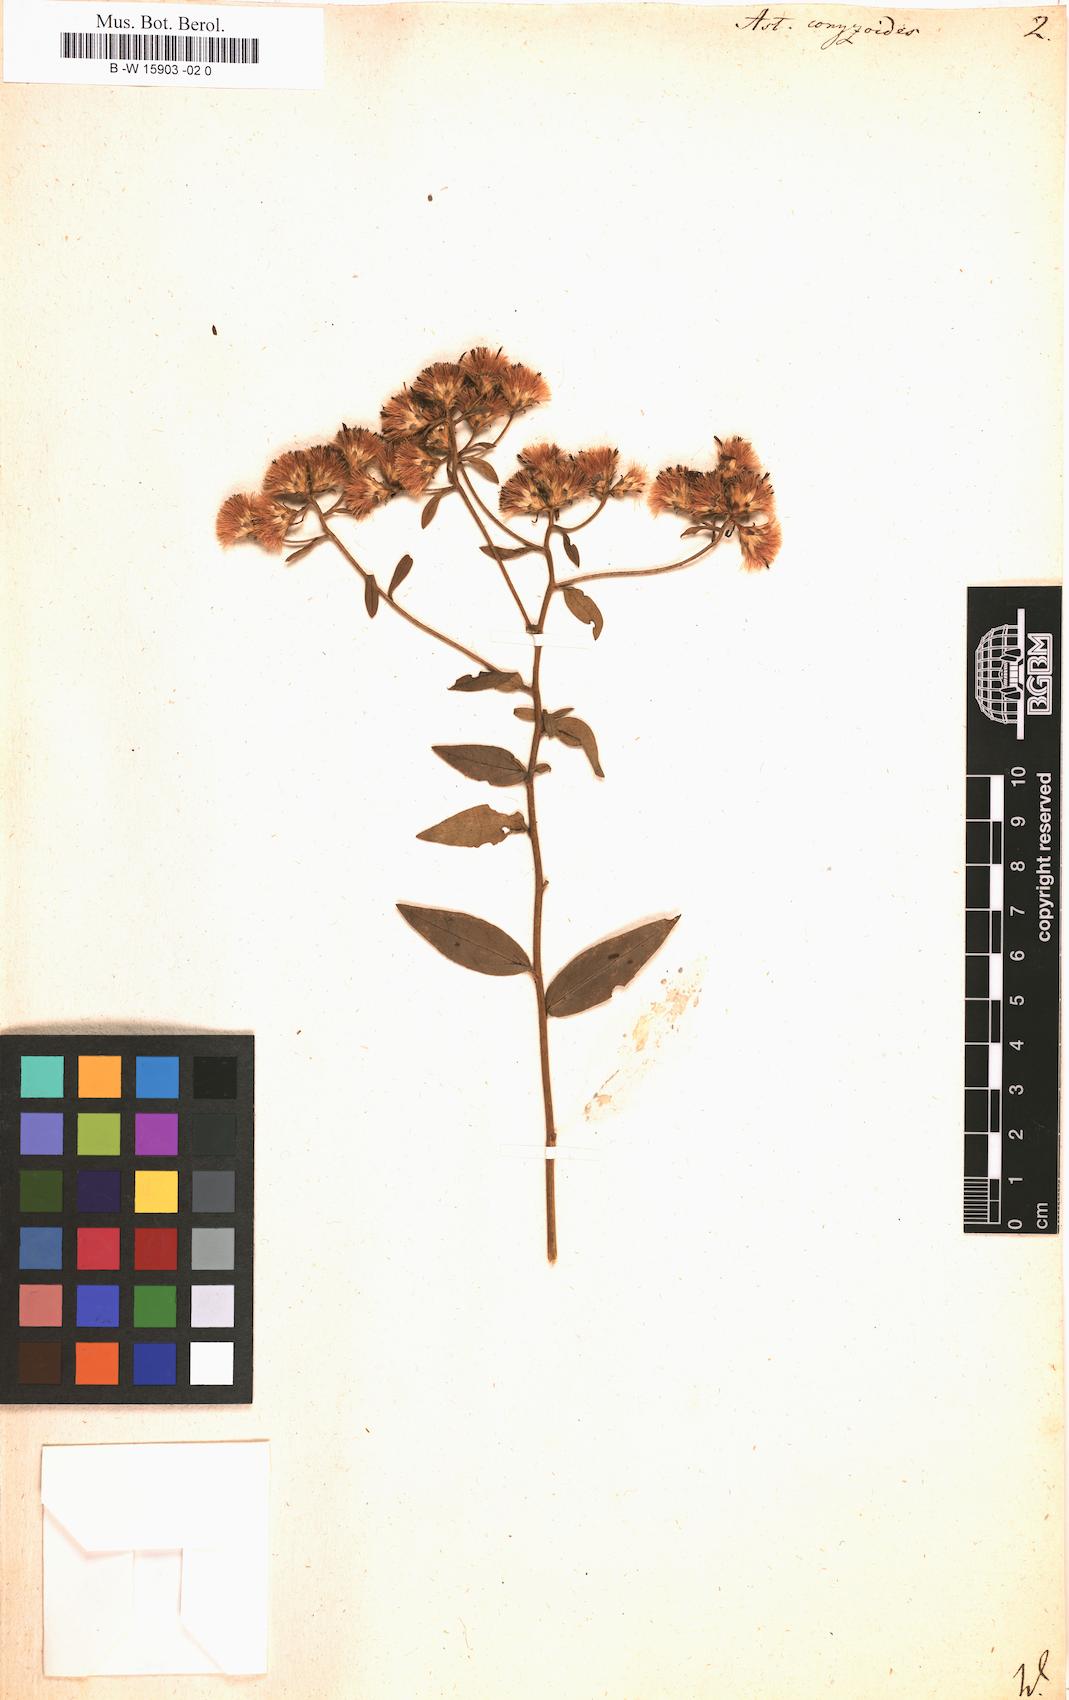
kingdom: Plantae
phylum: Tracheophyta
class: Magnoliopsida
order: Asterales
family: Asteraceae
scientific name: Asteraceae
